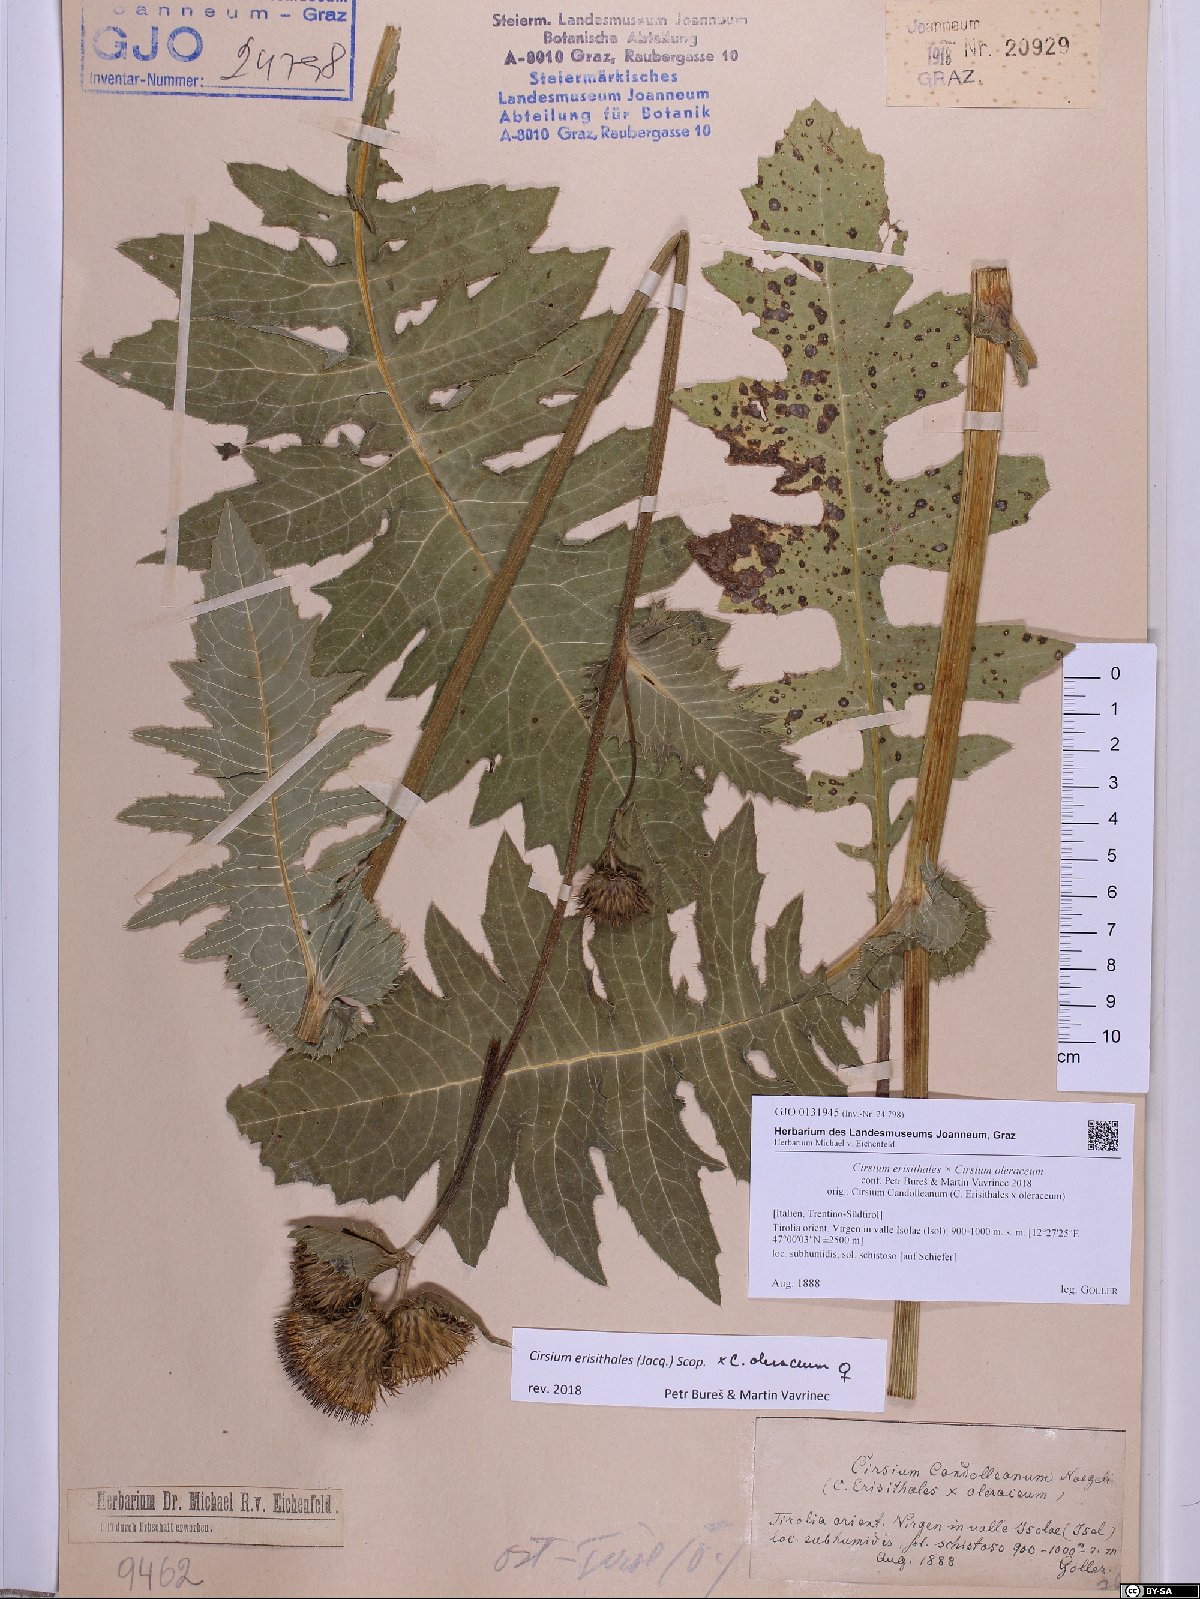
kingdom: Plantae
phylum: Tracheophyta
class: Magnoliopsida
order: Asterales
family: Asteraceae
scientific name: Asteraceae
